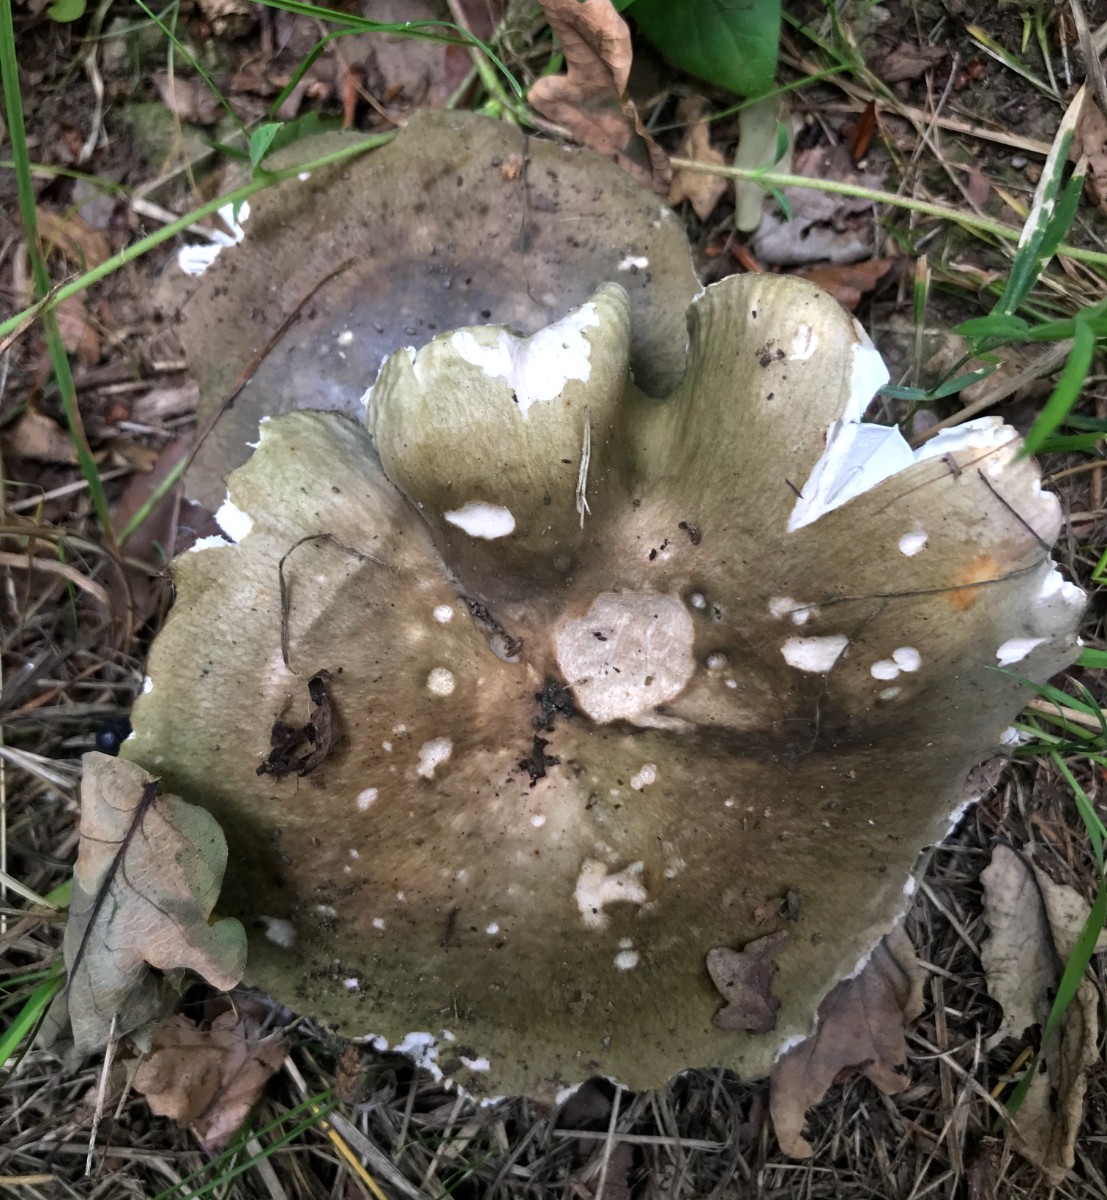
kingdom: Fungi
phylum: Basidiomycota
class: Agaricomycetes
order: Russulales
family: Russulaceae
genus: Russula
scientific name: Russula heterophylla
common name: gaffelbladet skørhat
